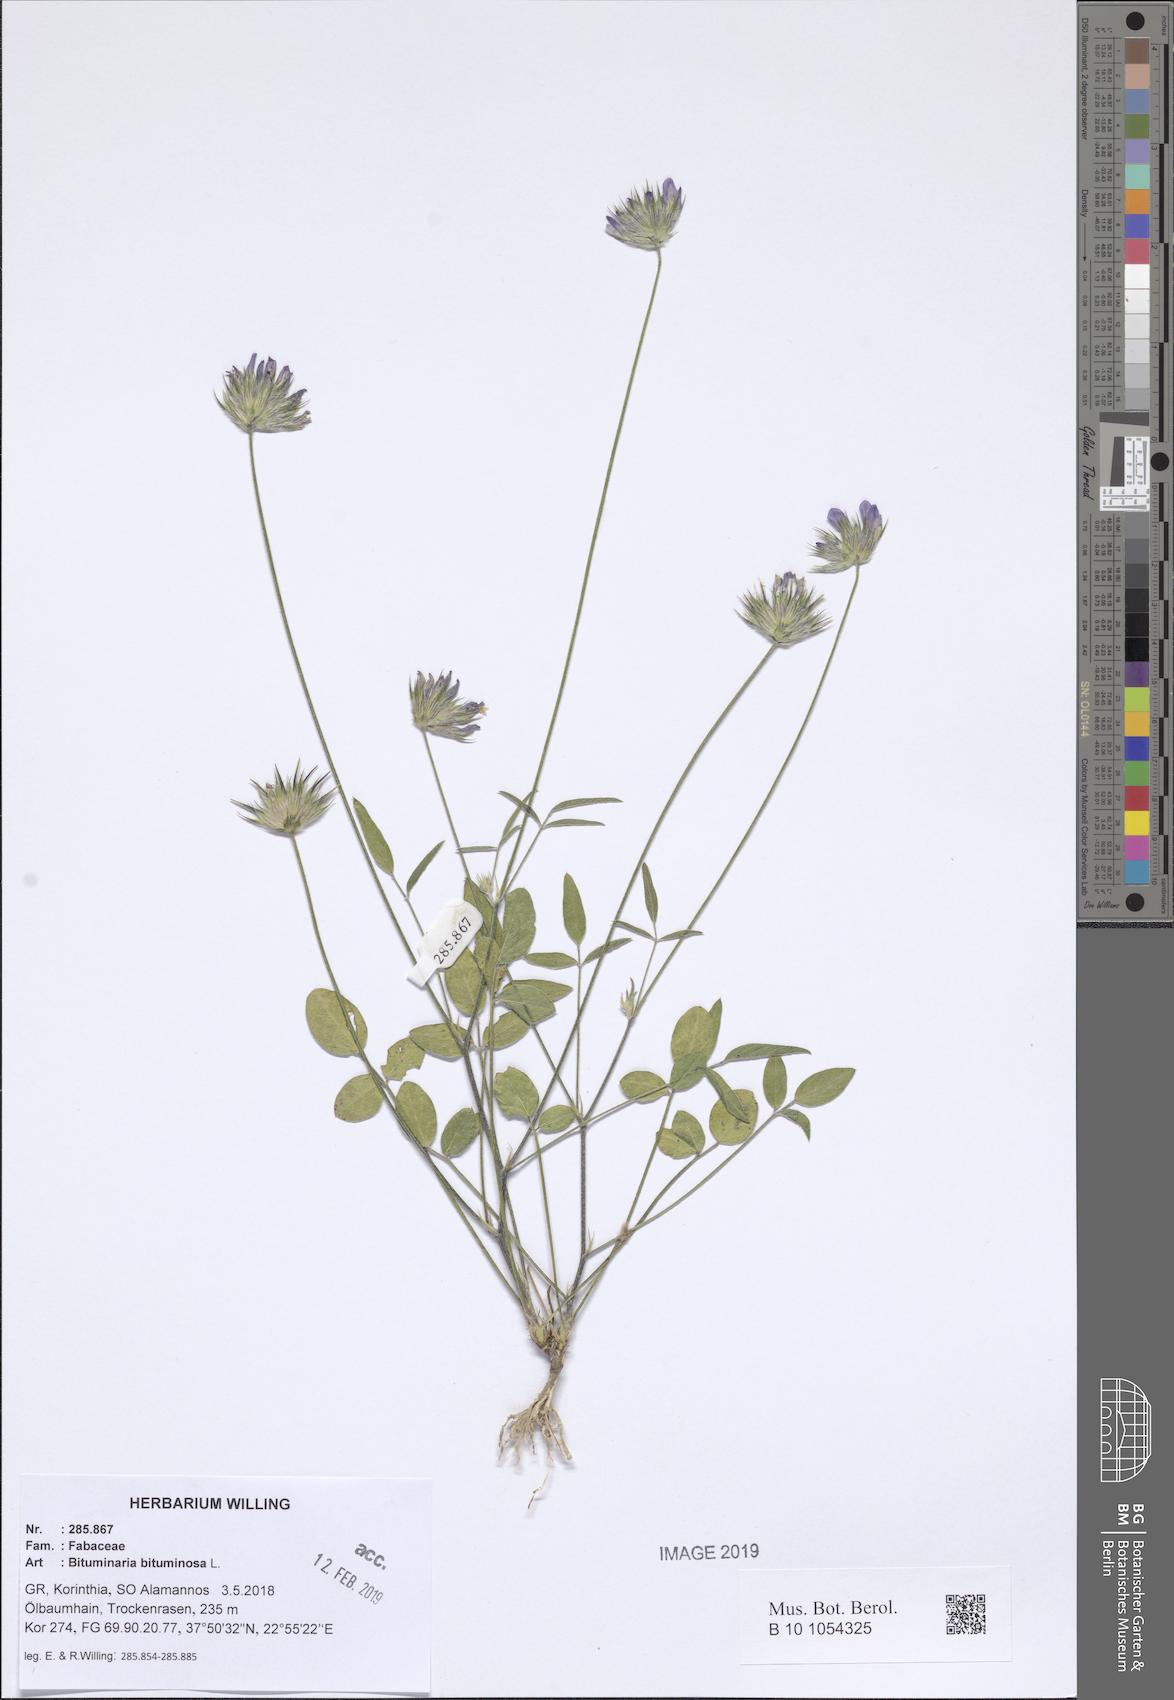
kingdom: Plantae
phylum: Tracheophyta
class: Magnoliopsida
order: Fabales
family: Fabaceae
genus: Bituminaria
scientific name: Bituminaria bituminosa
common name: Arabian pea
